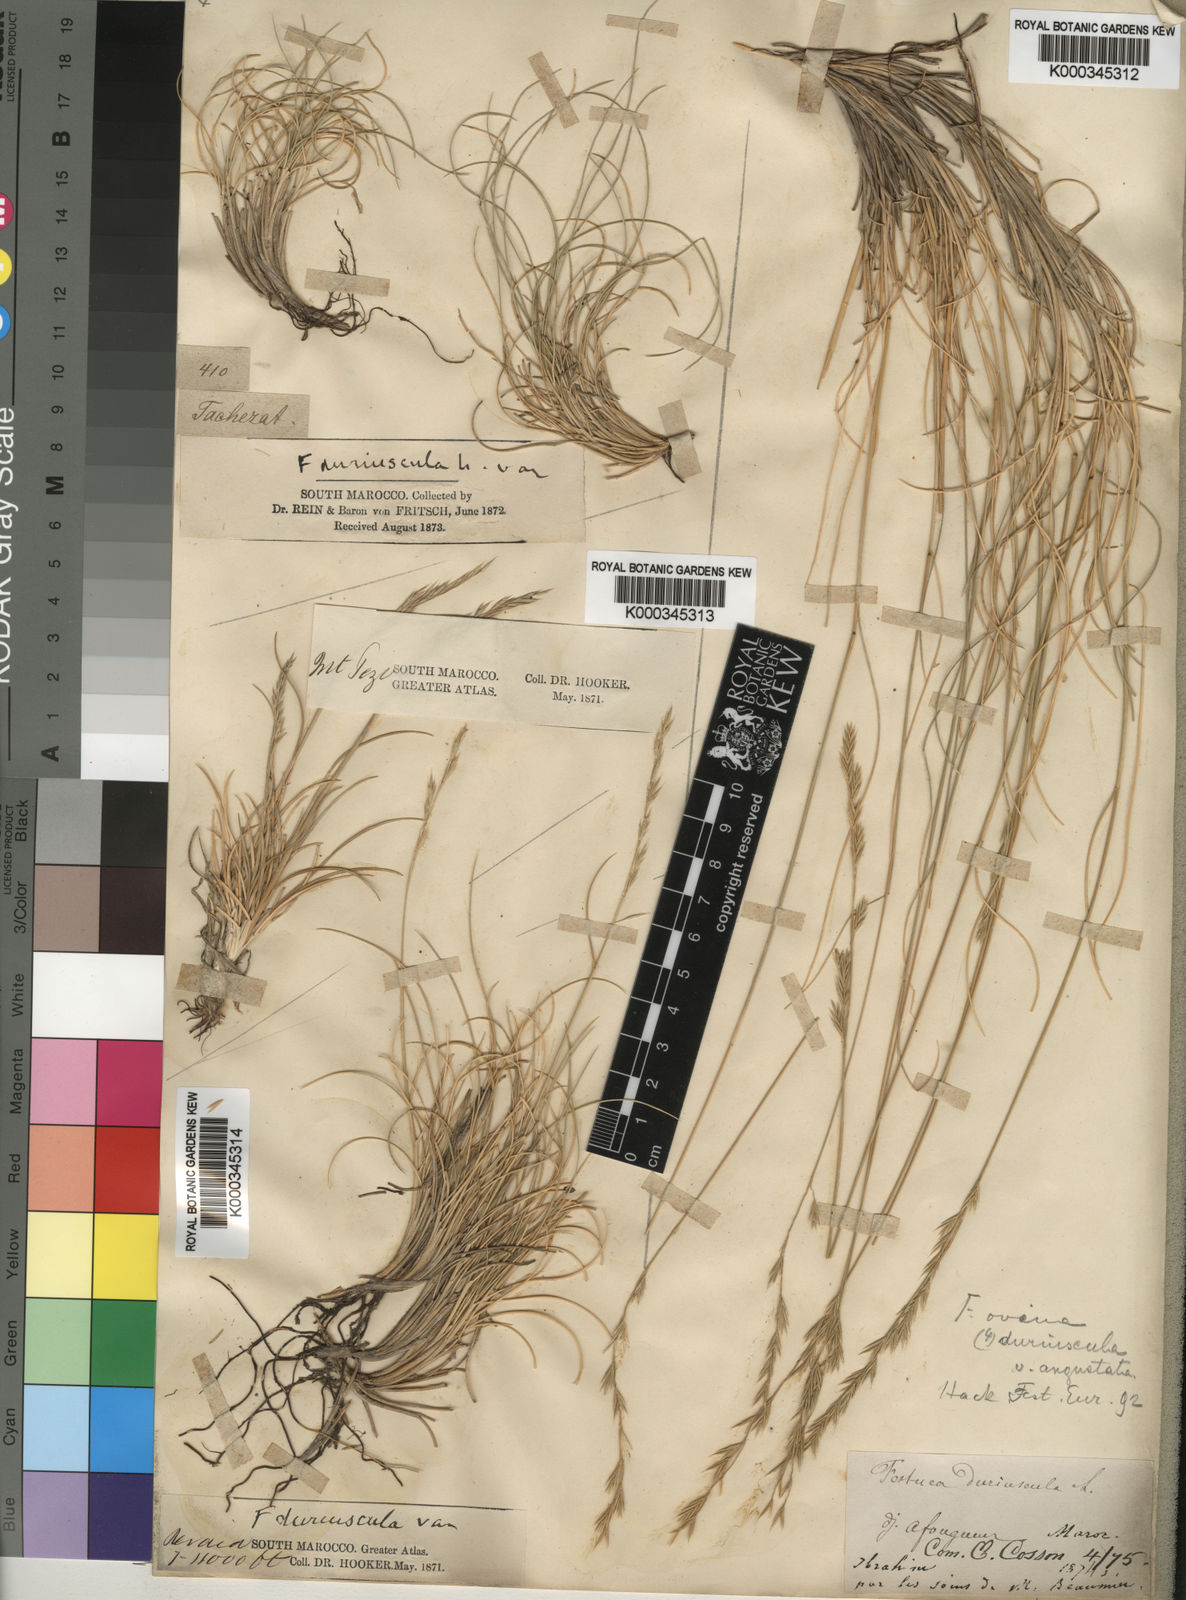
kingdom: Plantae
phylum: Tracheophyta
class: Liliopsida
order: Poales
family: Poaceae
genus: Festuca
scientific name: Festuca ovina
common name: Sheep fescue
